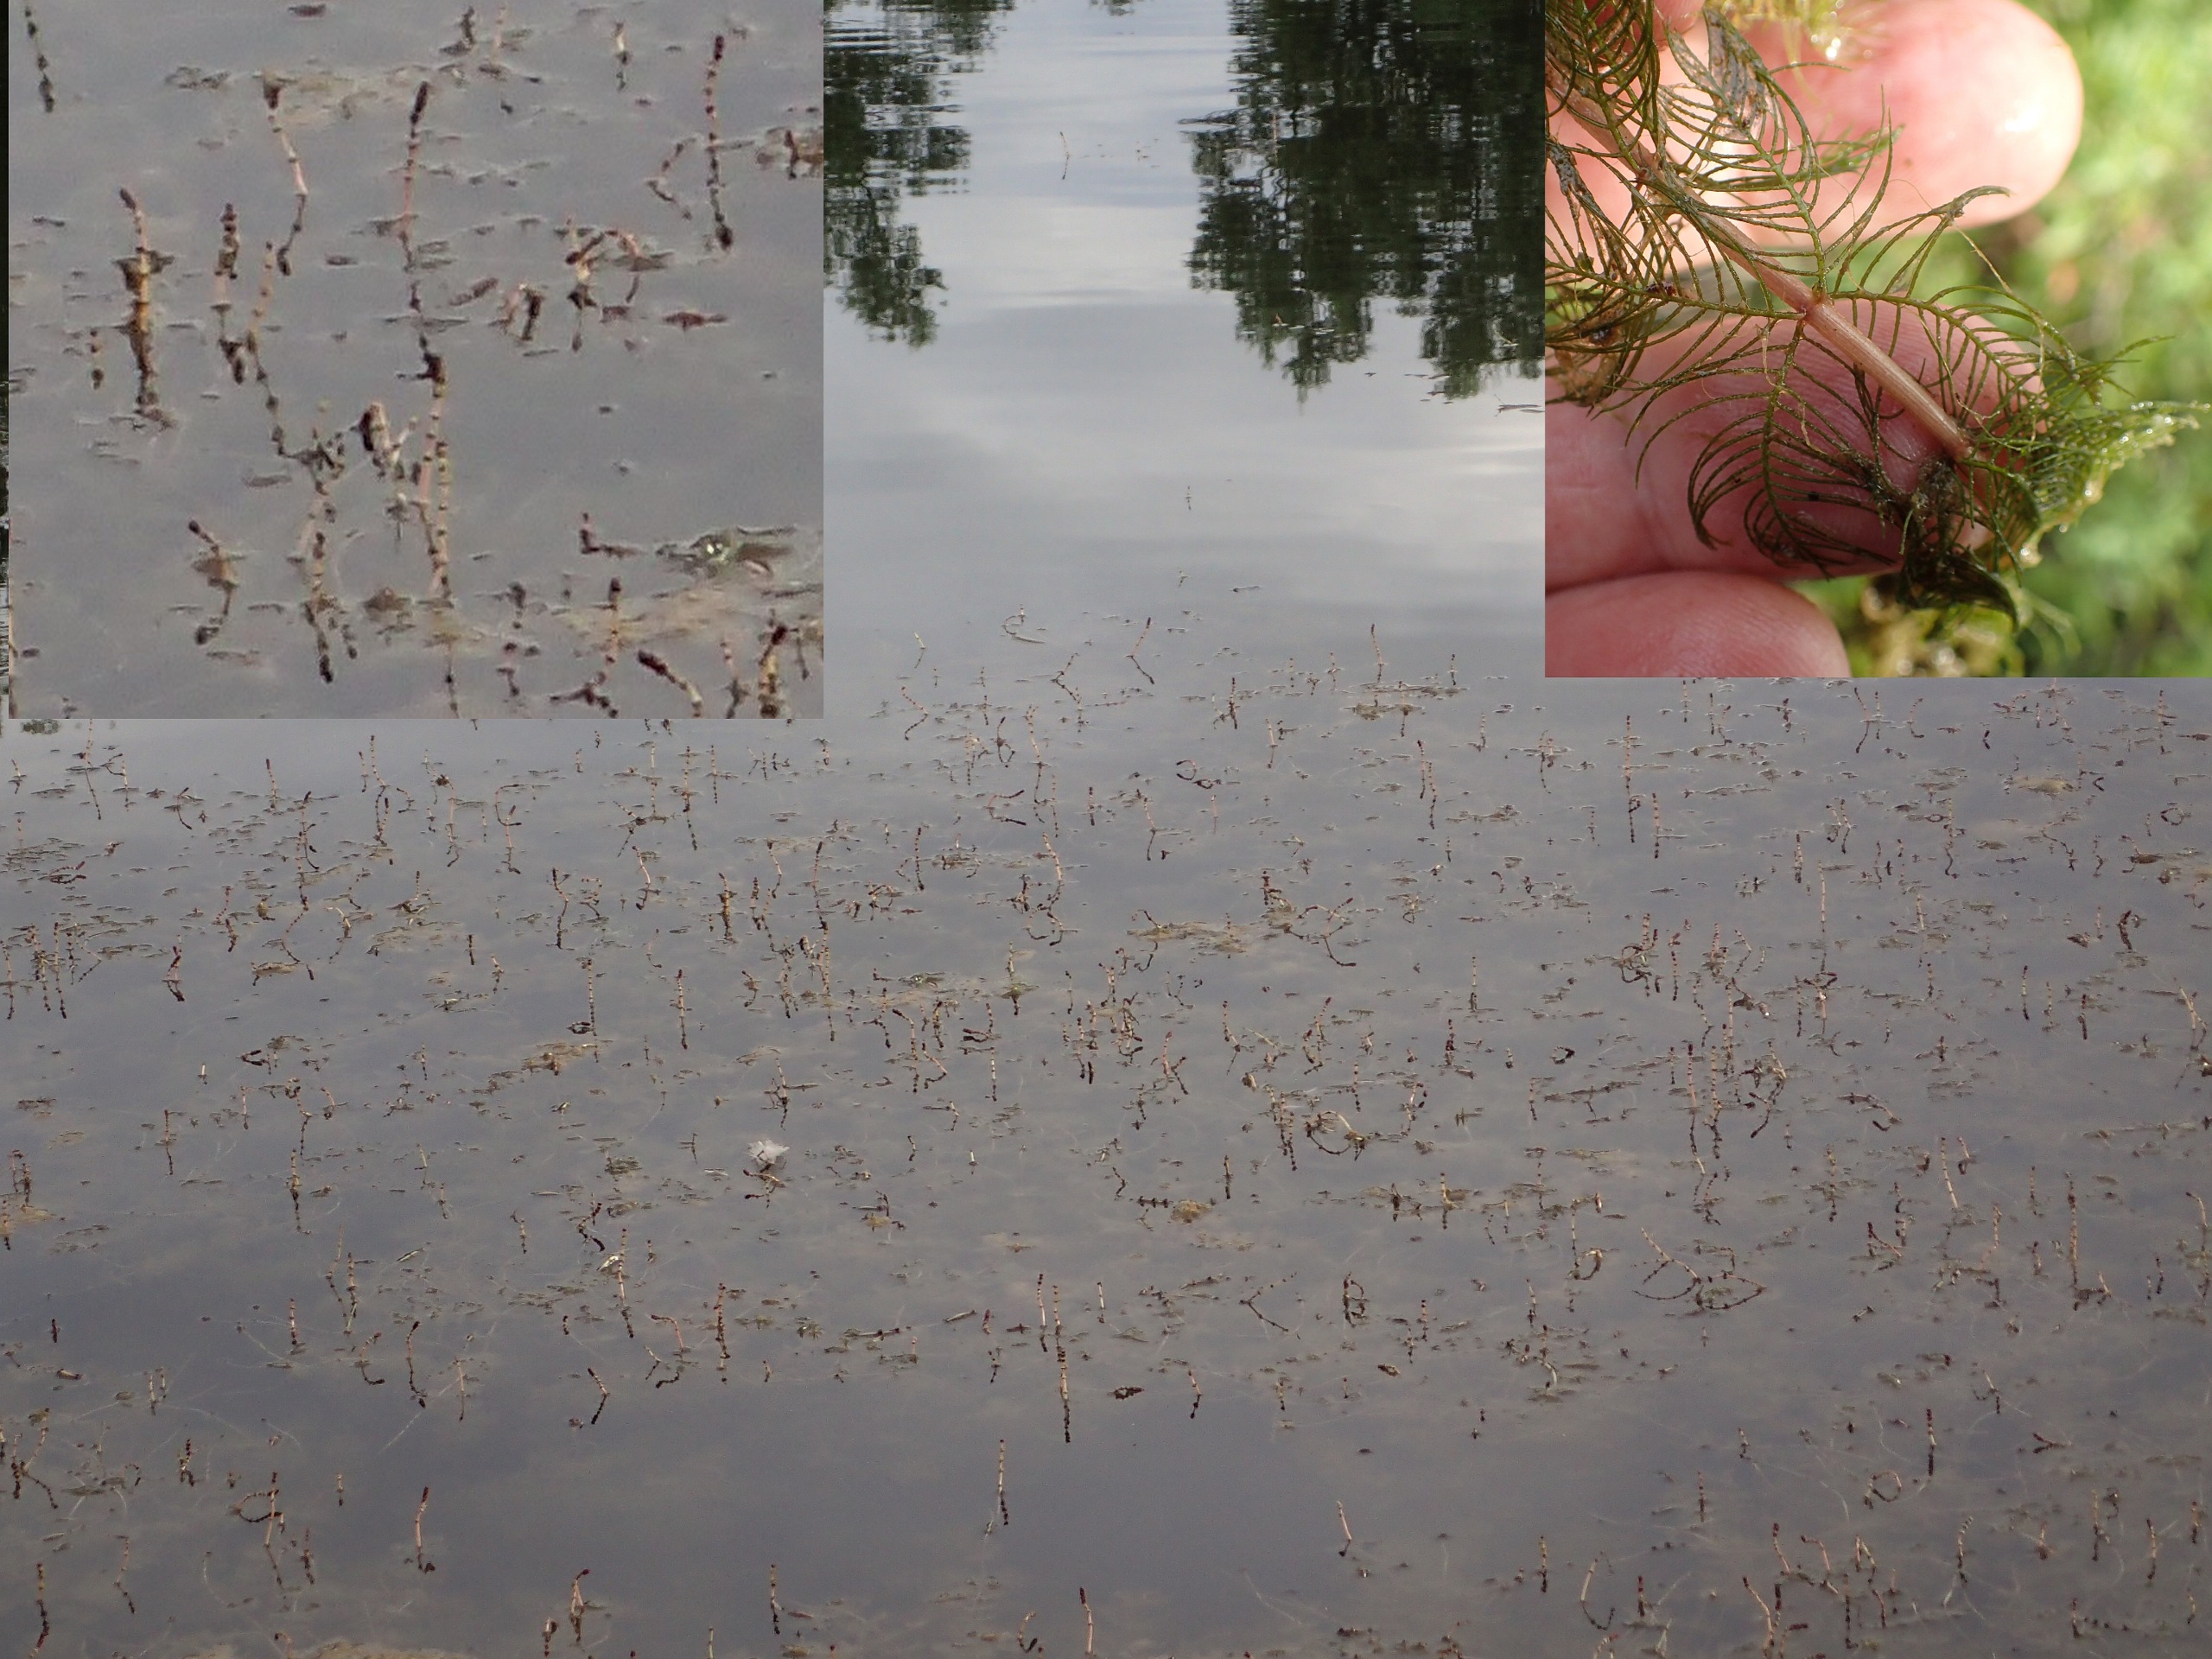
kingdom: Plantae
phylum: Tracheophyta
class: Magnoliopsida
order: Saxifragales
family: Haloragaceae
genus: Myriophyllum
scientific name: Myriophyllum spicatum
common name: Aks-tusindblad
